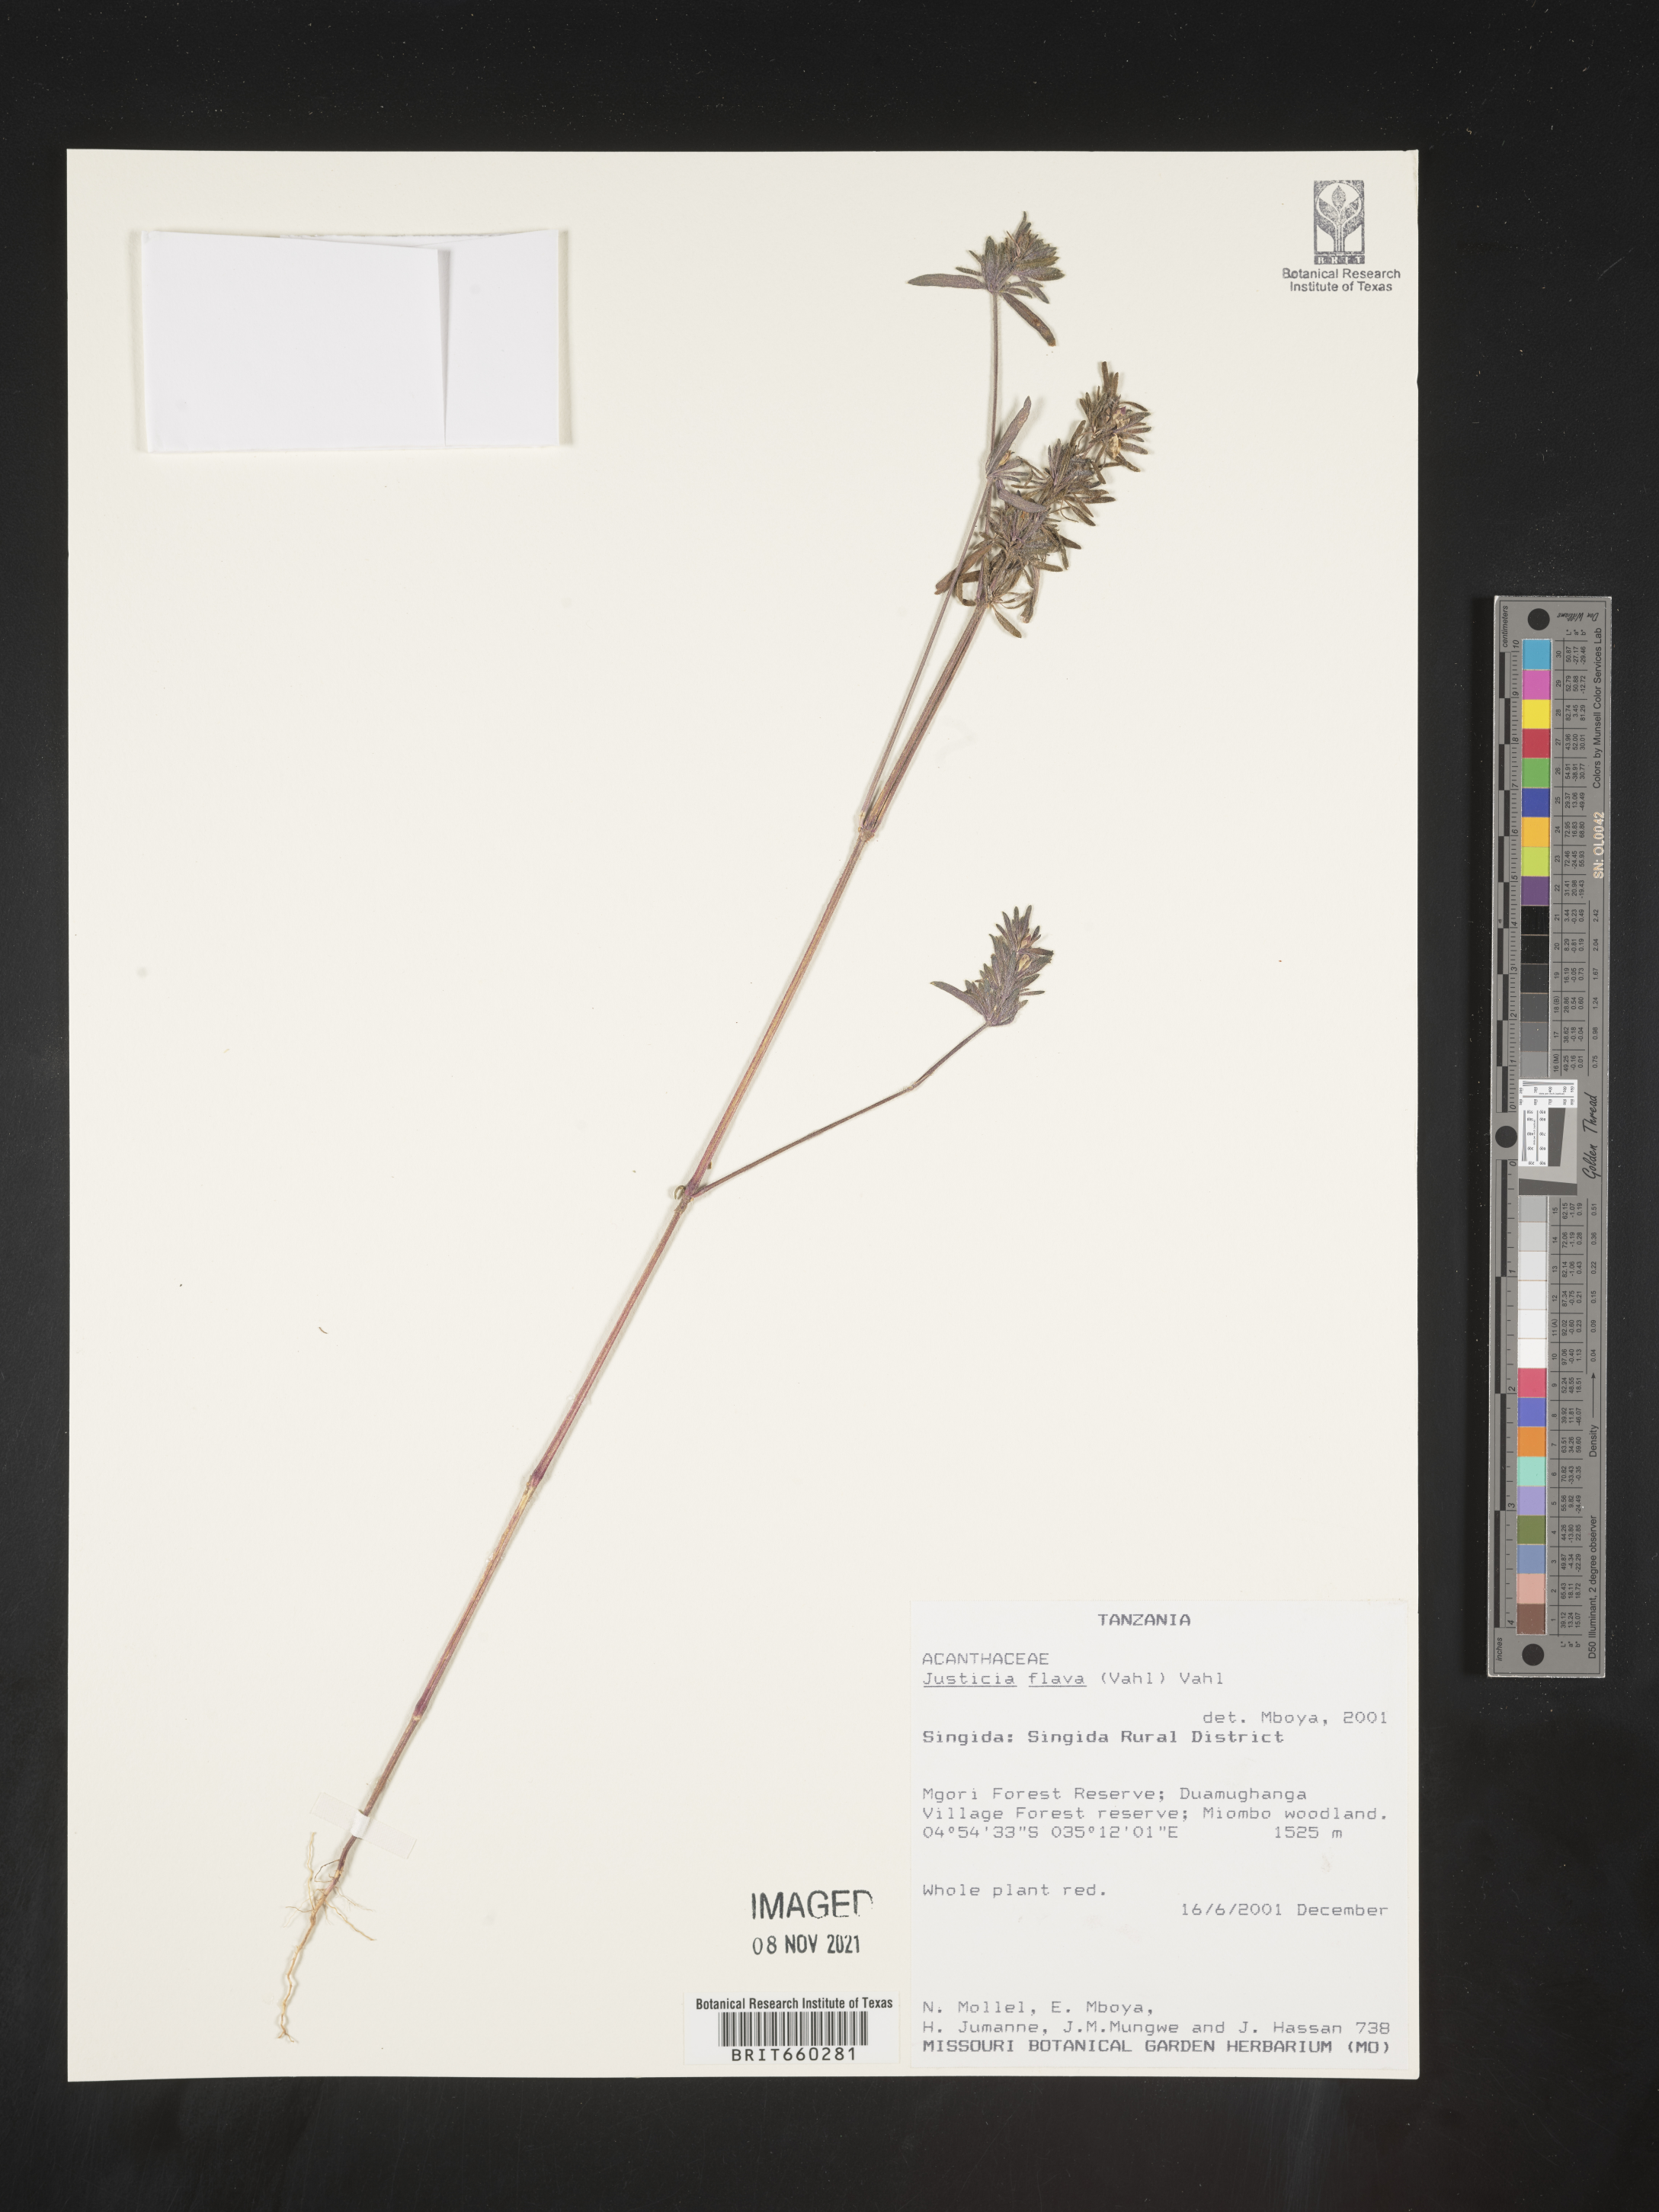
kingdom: Plantae
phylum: Tracheophyta
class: Magnoliopsida
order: Lamiales
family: Acanthaceae
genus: Justicia
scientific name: Justicia flava
